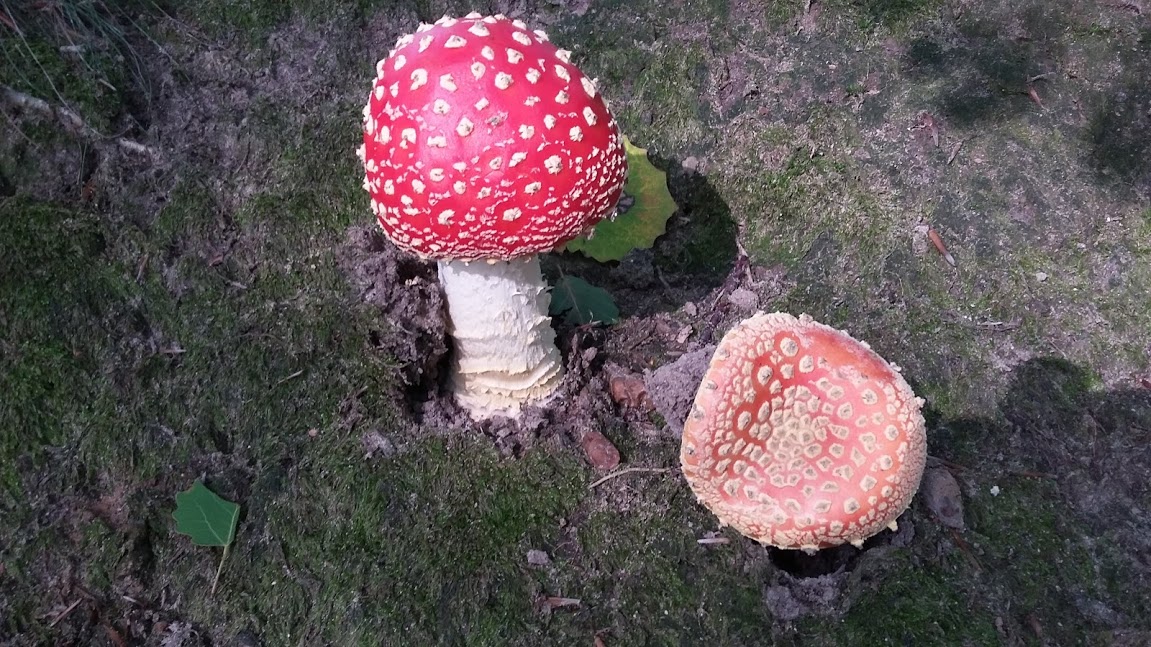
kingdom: Fungi
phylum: Basidiomycota
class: Agaricomycetes
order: Agaricales
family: Amanitaceae
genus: Amanita
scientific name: Amanita muscaria
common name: rød fluesvamp
